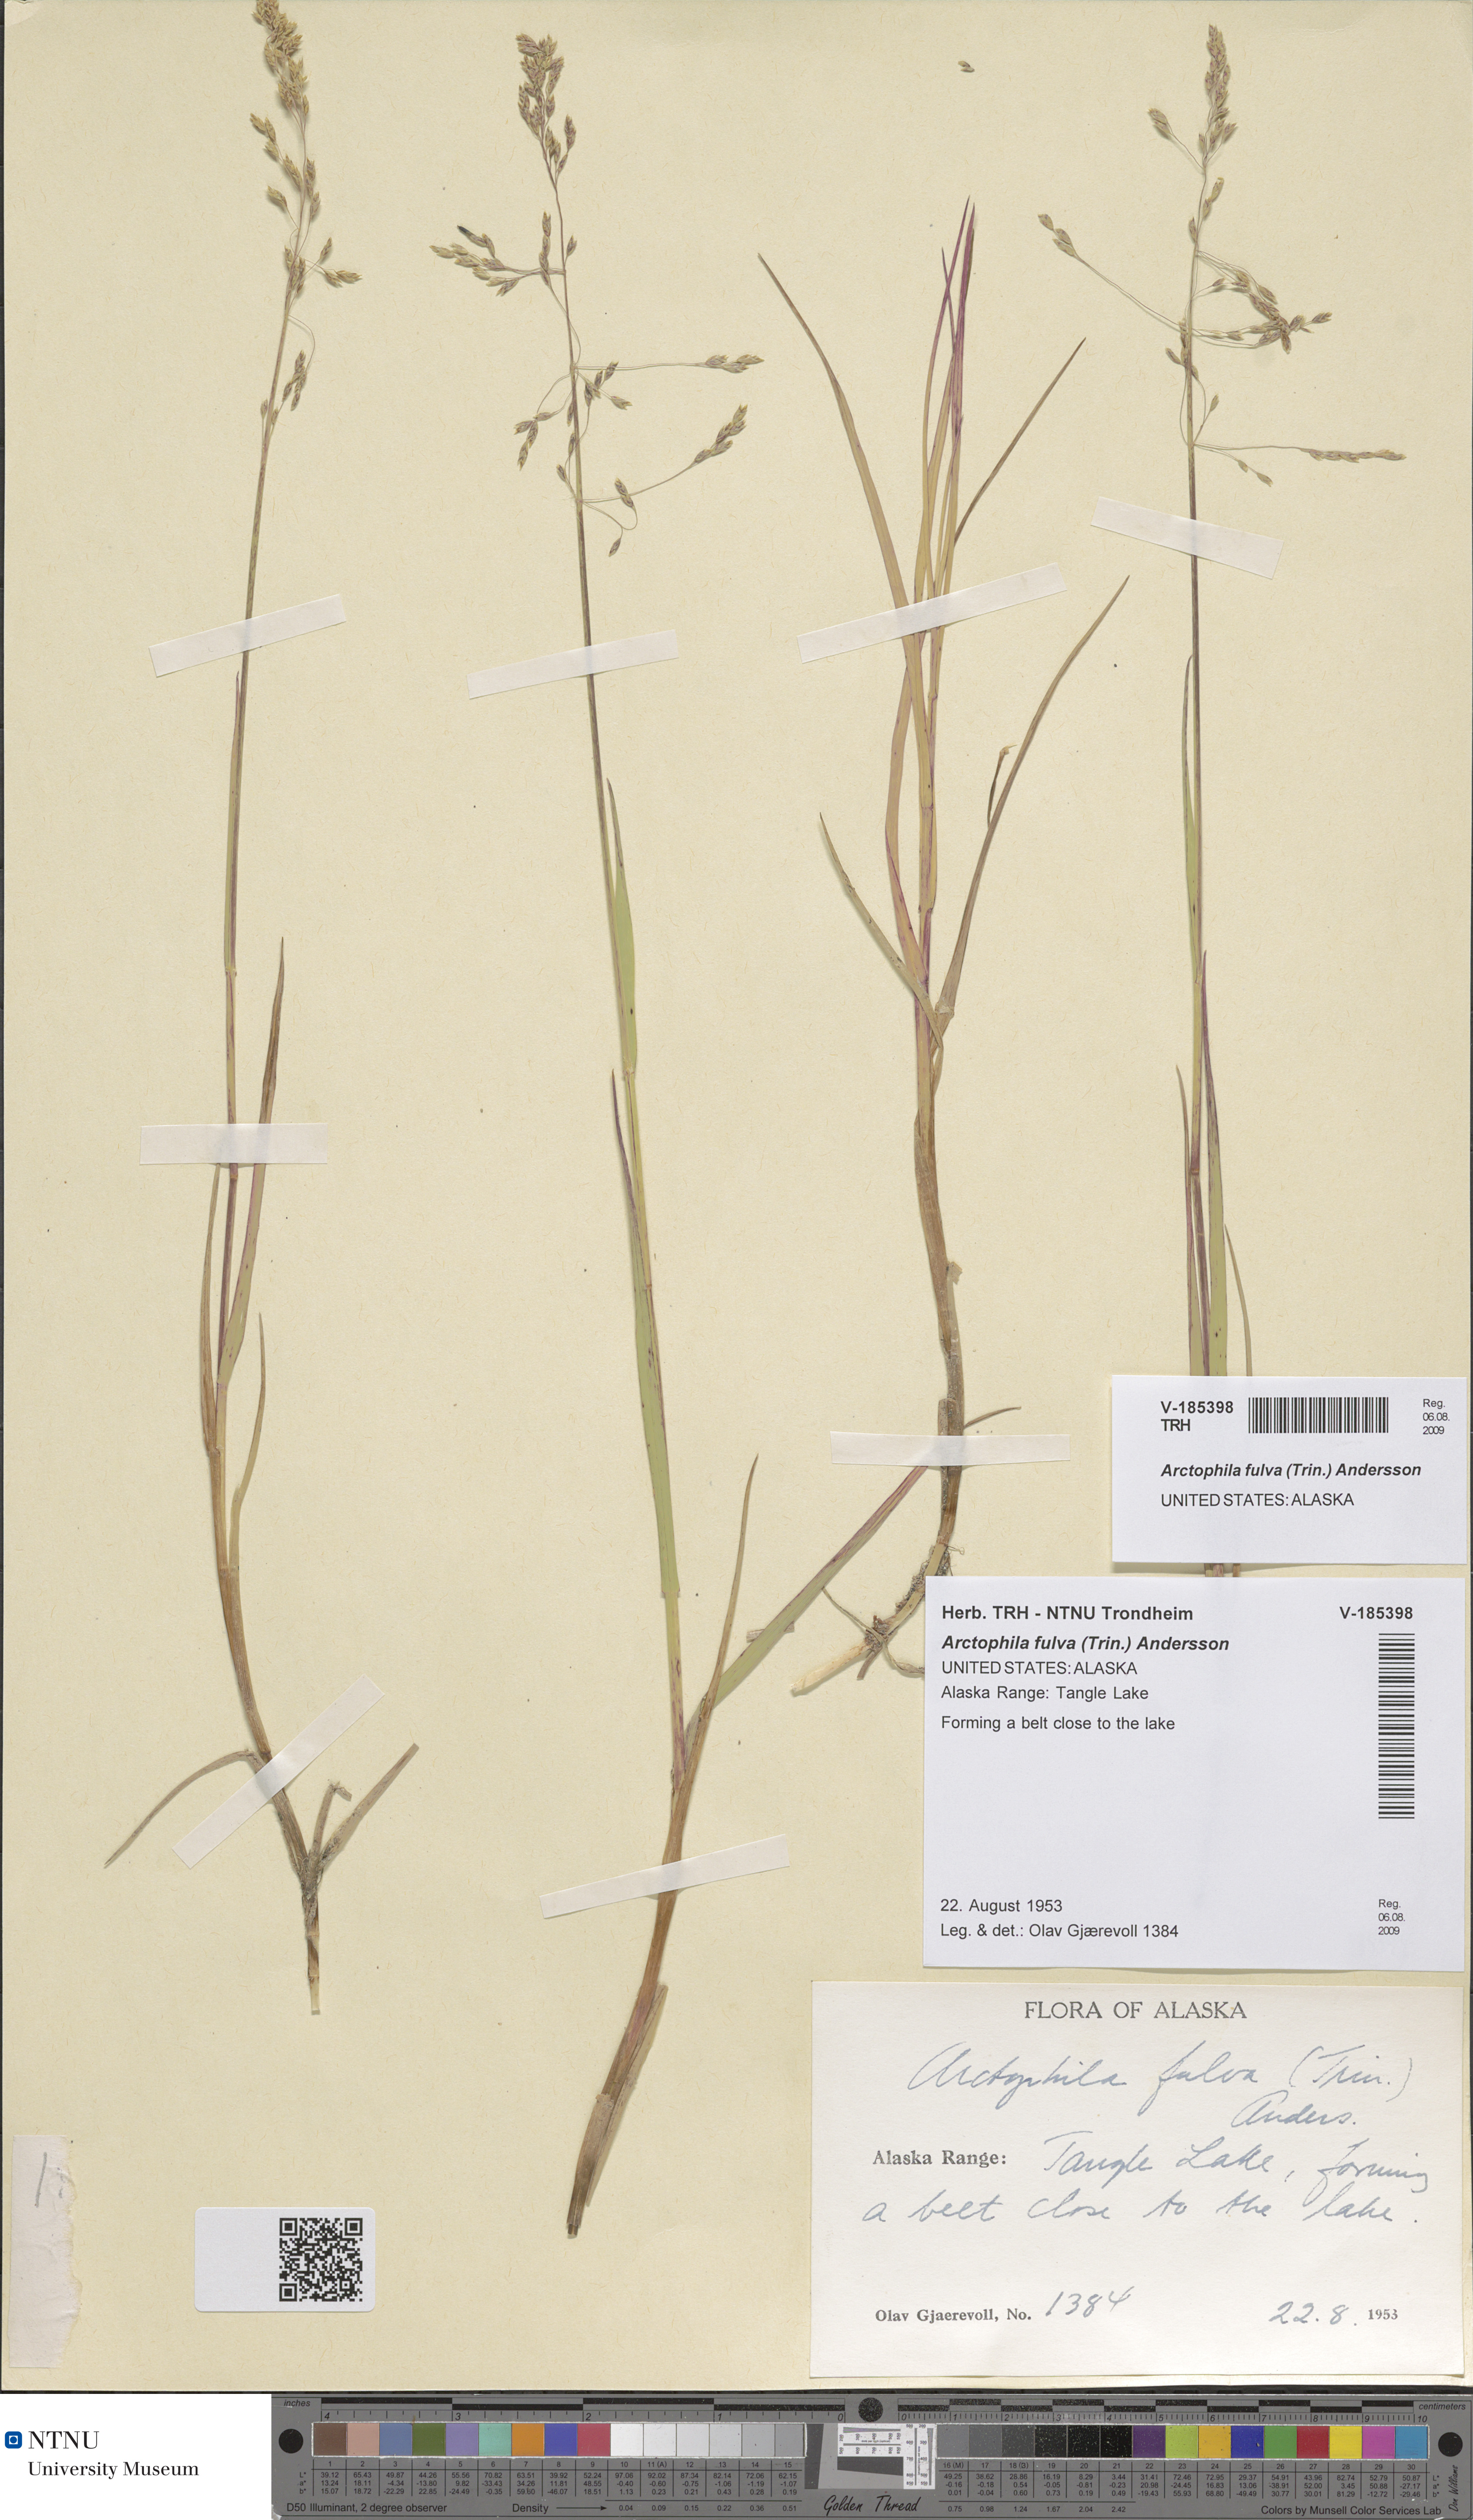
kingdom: Plantae
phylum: Tracheophyta
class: Liliopsida
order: Poales
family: Poaceae
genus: Dupontia
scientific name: Dupontia fulva
